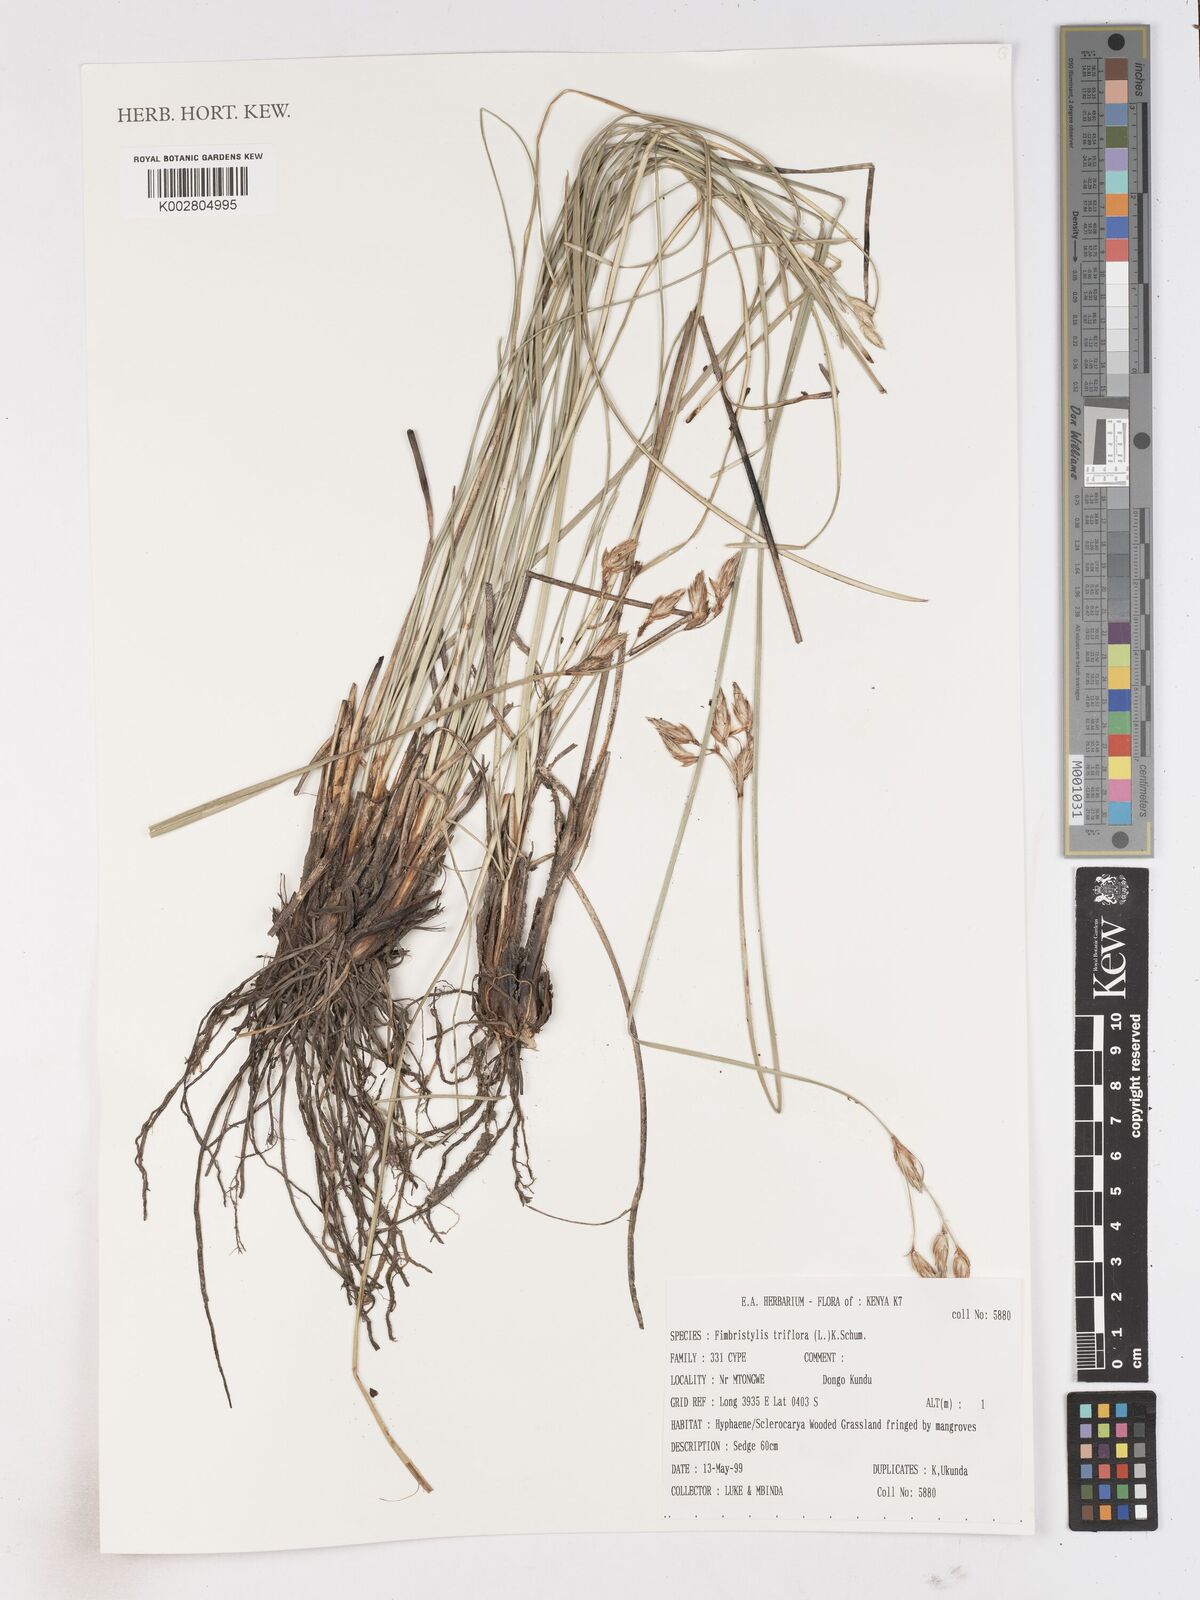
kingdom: Plantae
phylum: Tracheophyta
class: Liliopsida
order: Poales
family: Cyperaceae
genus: Abildgaardia
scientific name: Abildgaardia triflora
